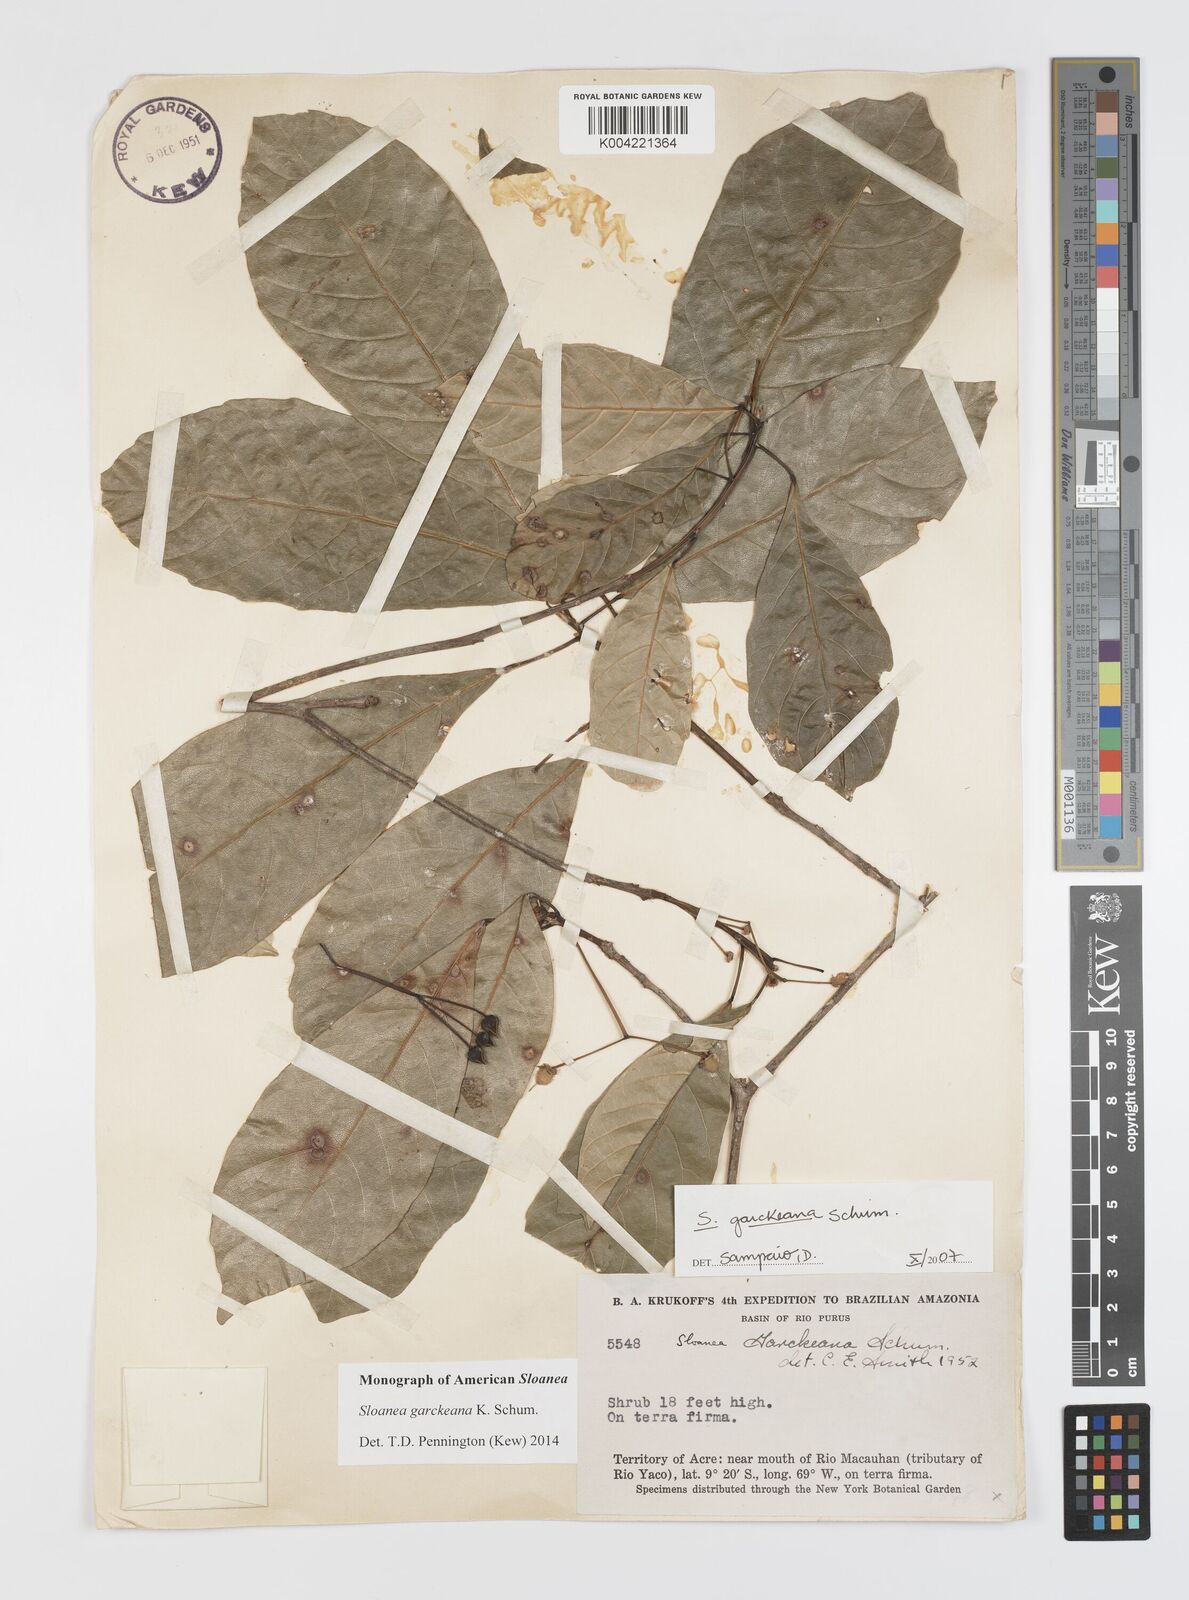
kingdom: Plantae
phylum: Tracheophyta
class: Magnoliopsida
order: Oxalidales
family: Elaeocarpaceae
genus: Sloanea
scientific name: Sloanea garckeana
